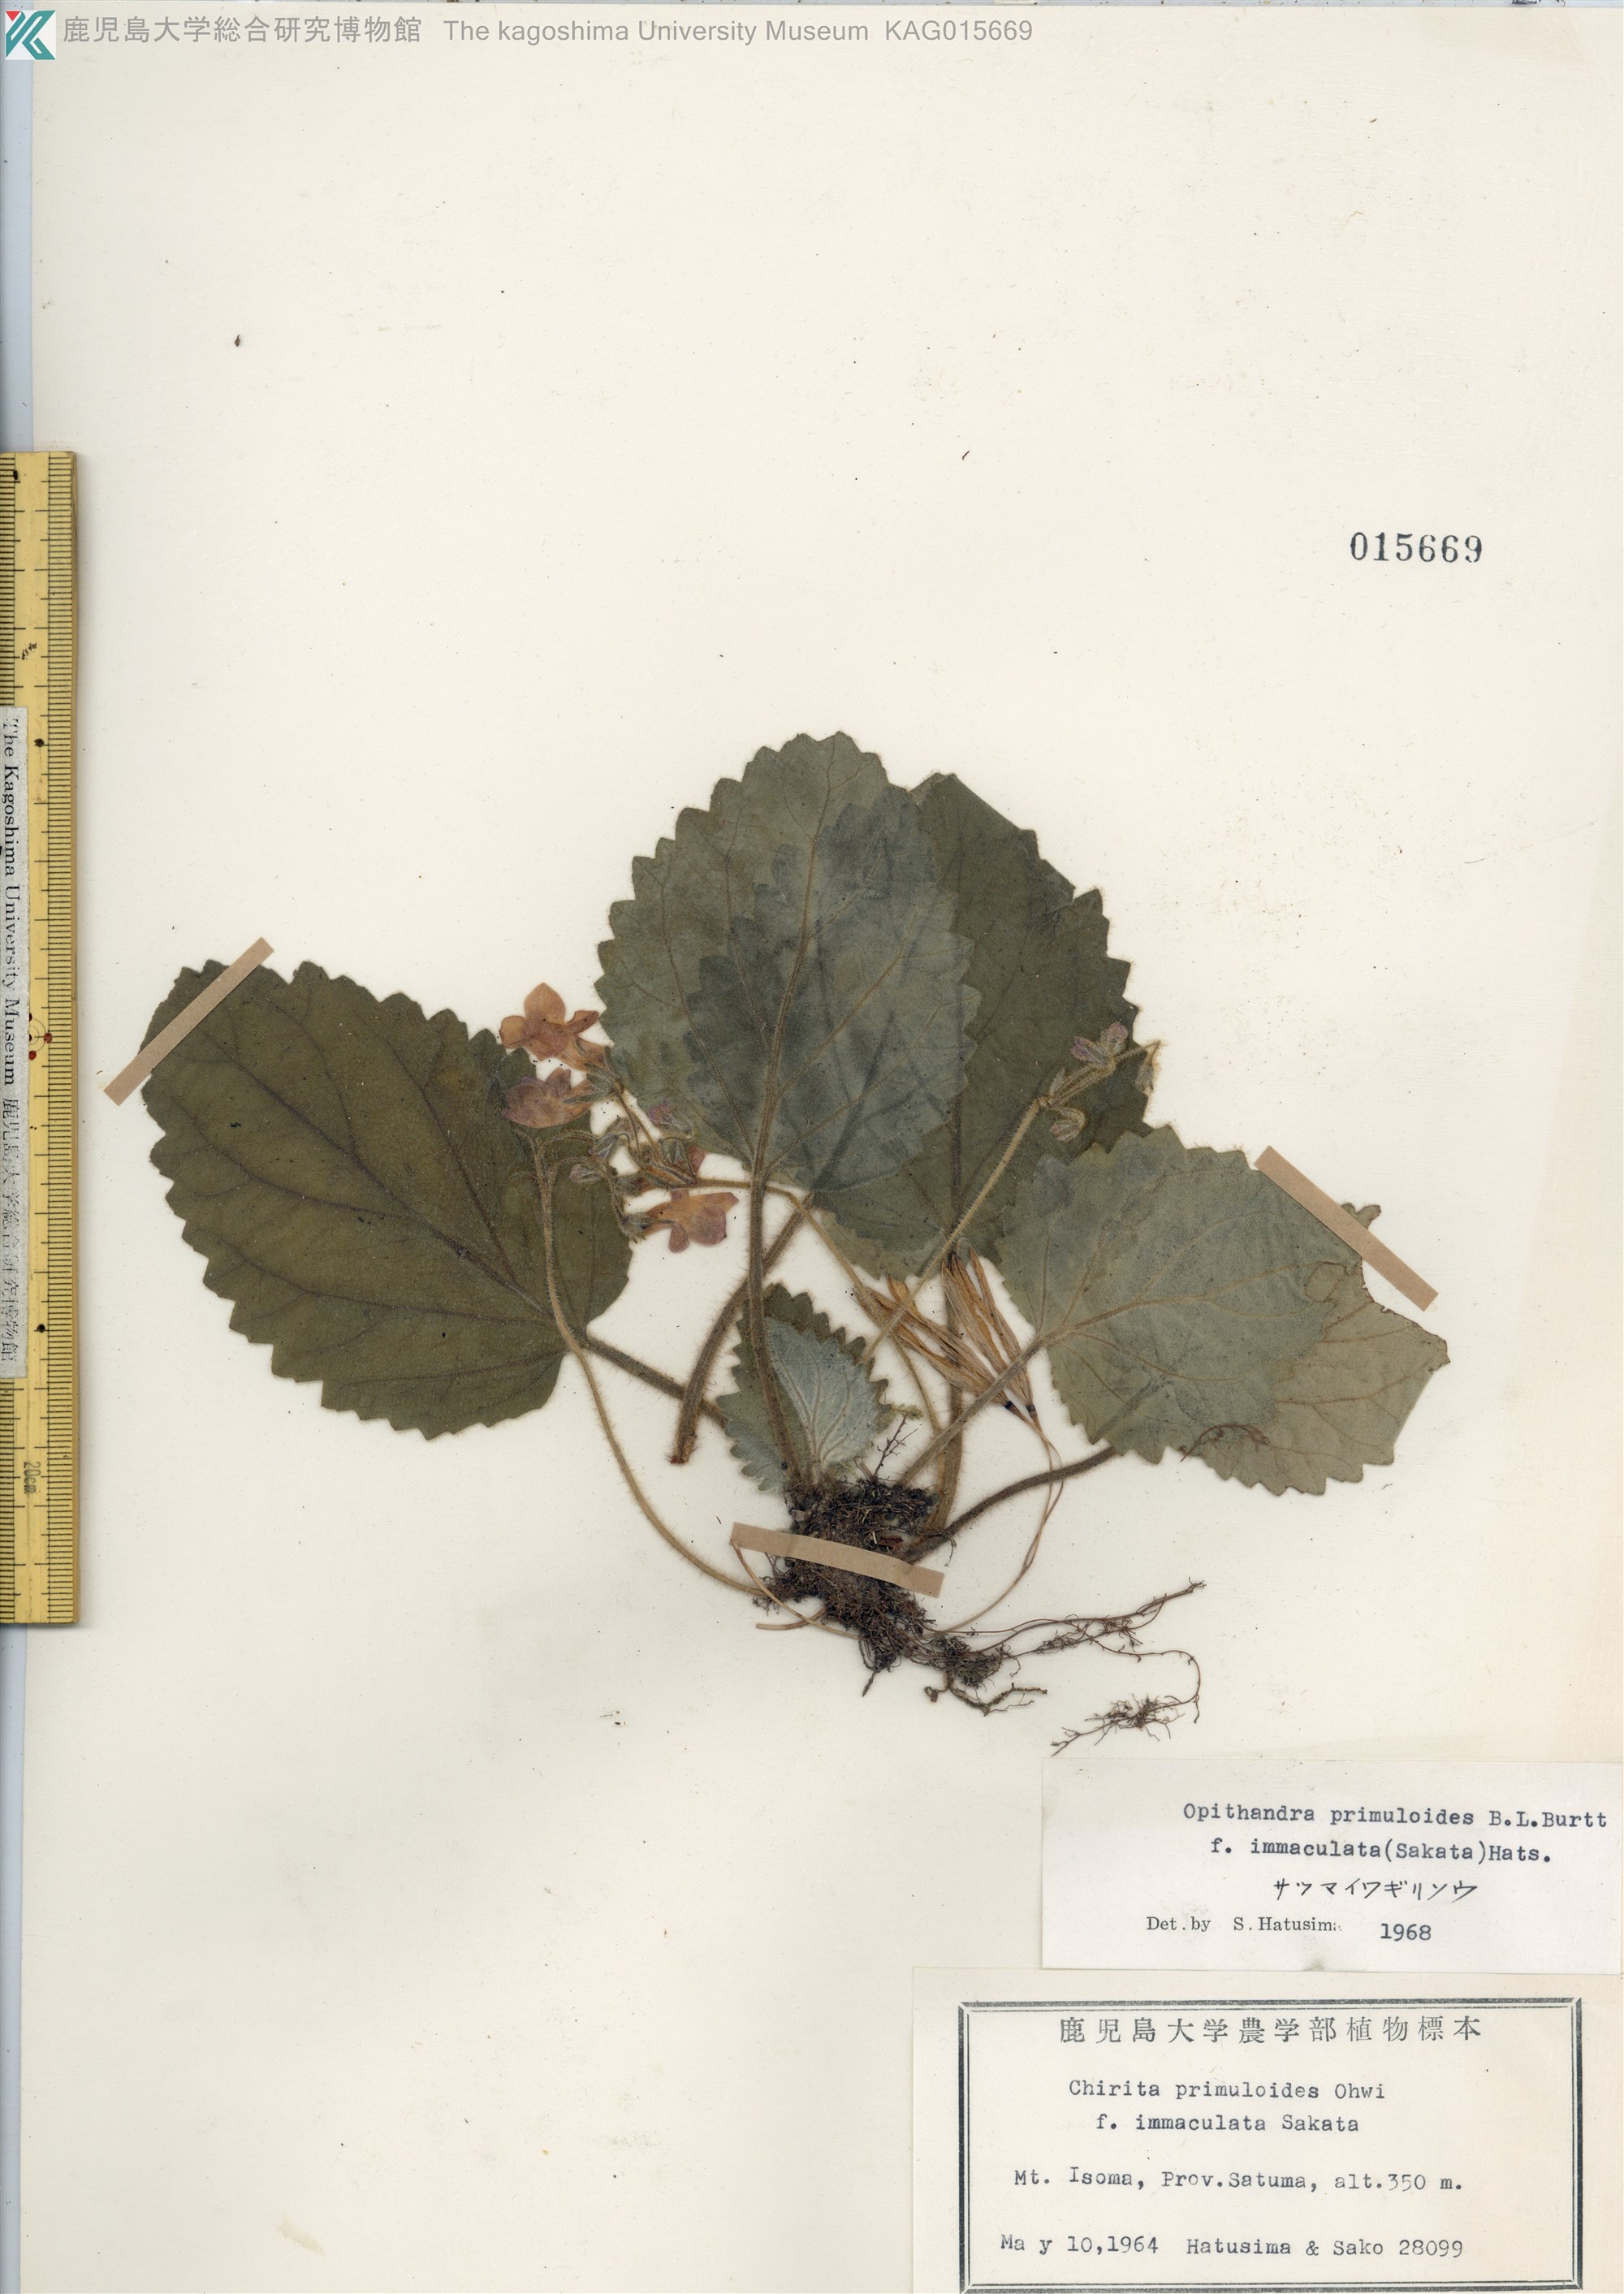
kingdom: Plantae
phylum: Tracheophyta
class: Magnoliopsida
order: Lamiales
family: Gesneriaceae
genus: Oreocharis
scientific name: Oreocharis primuloides
